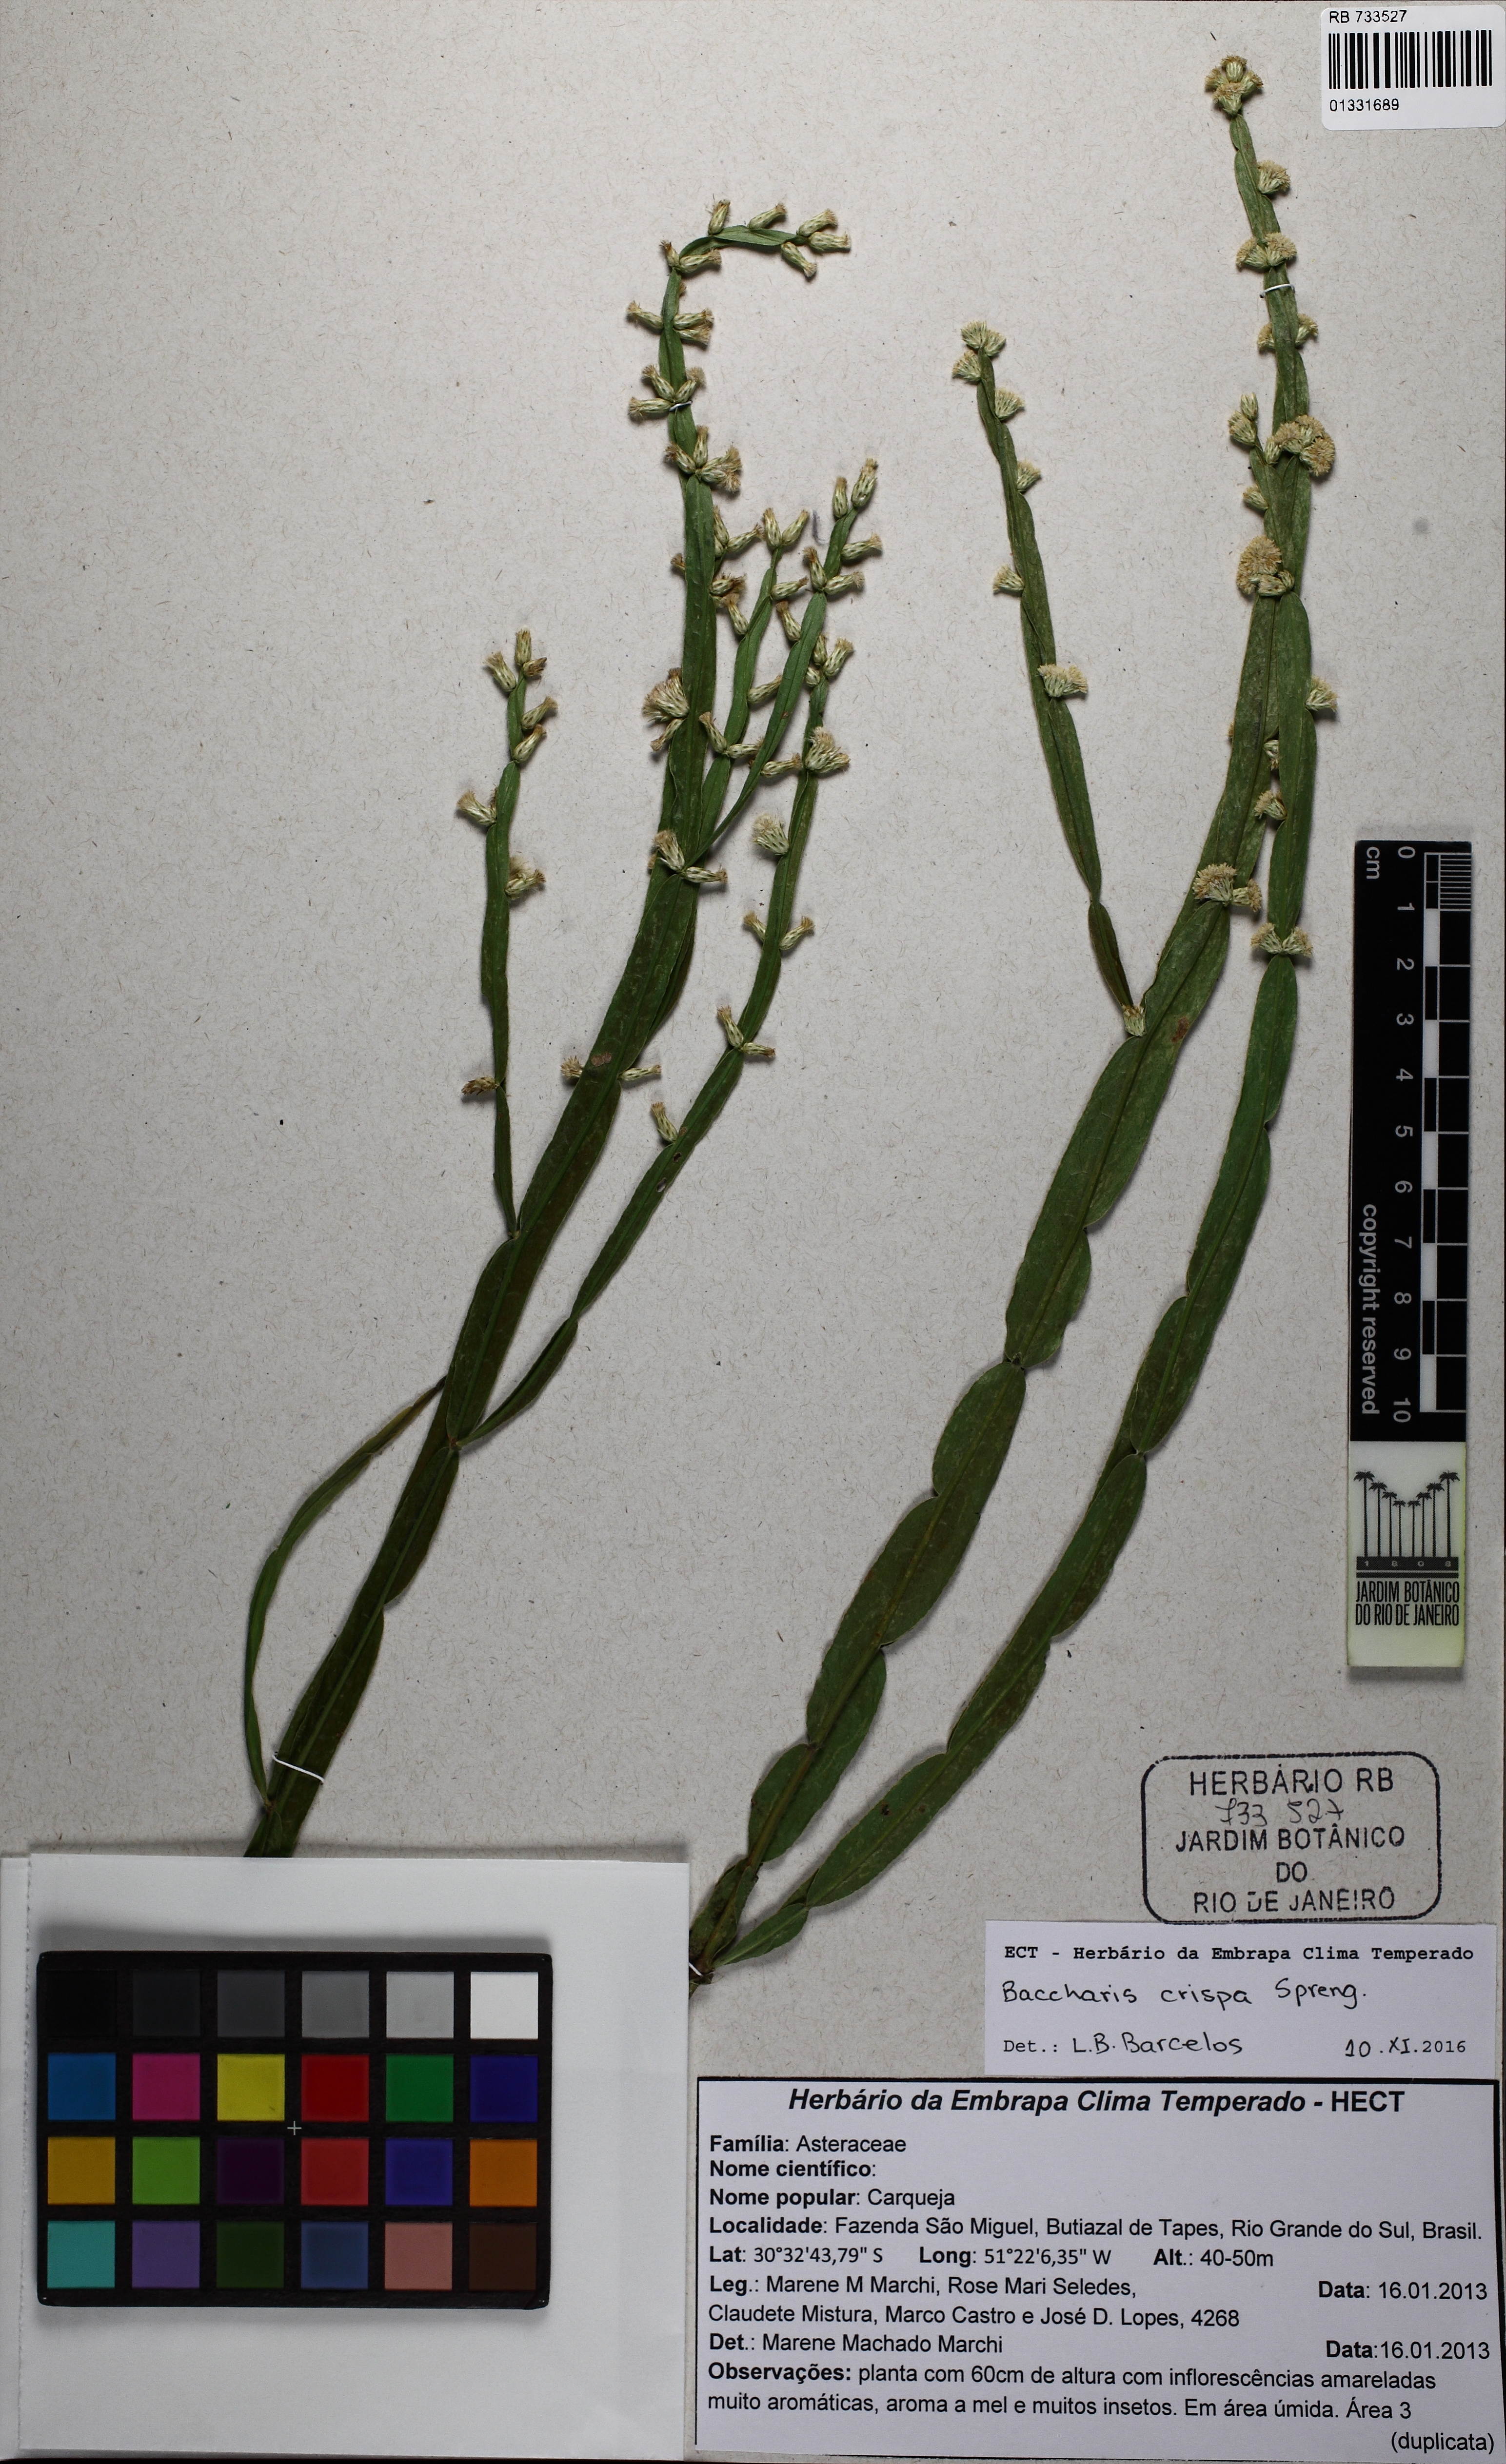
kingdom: Plantae
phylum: Tracheophyta
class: Magnoliopsida
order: Asterales
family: Asteraceae
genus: Baccharis
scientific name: Baccharis crispa
